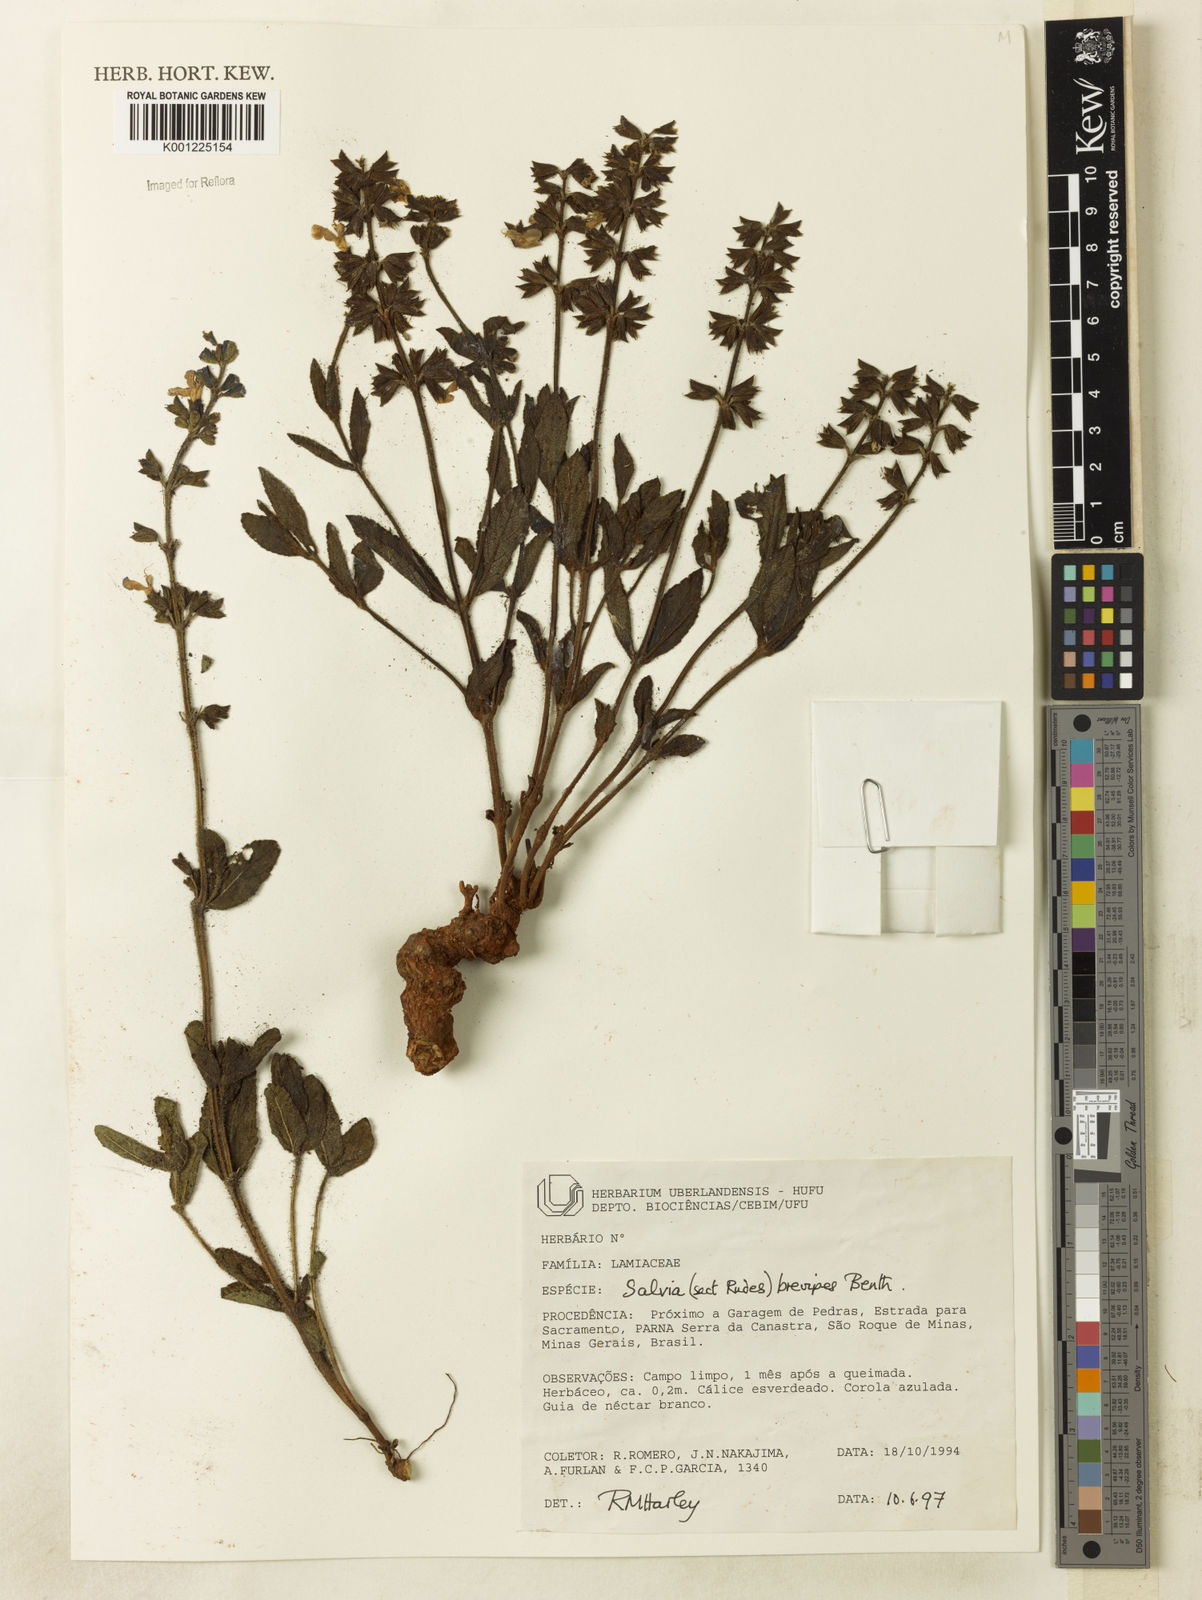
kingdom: Plantae
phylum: Tracheophyta
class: Magnoliopsida
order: Lamiales
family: Lamiaceae
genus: Salvia
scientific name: Salvia brevipes
